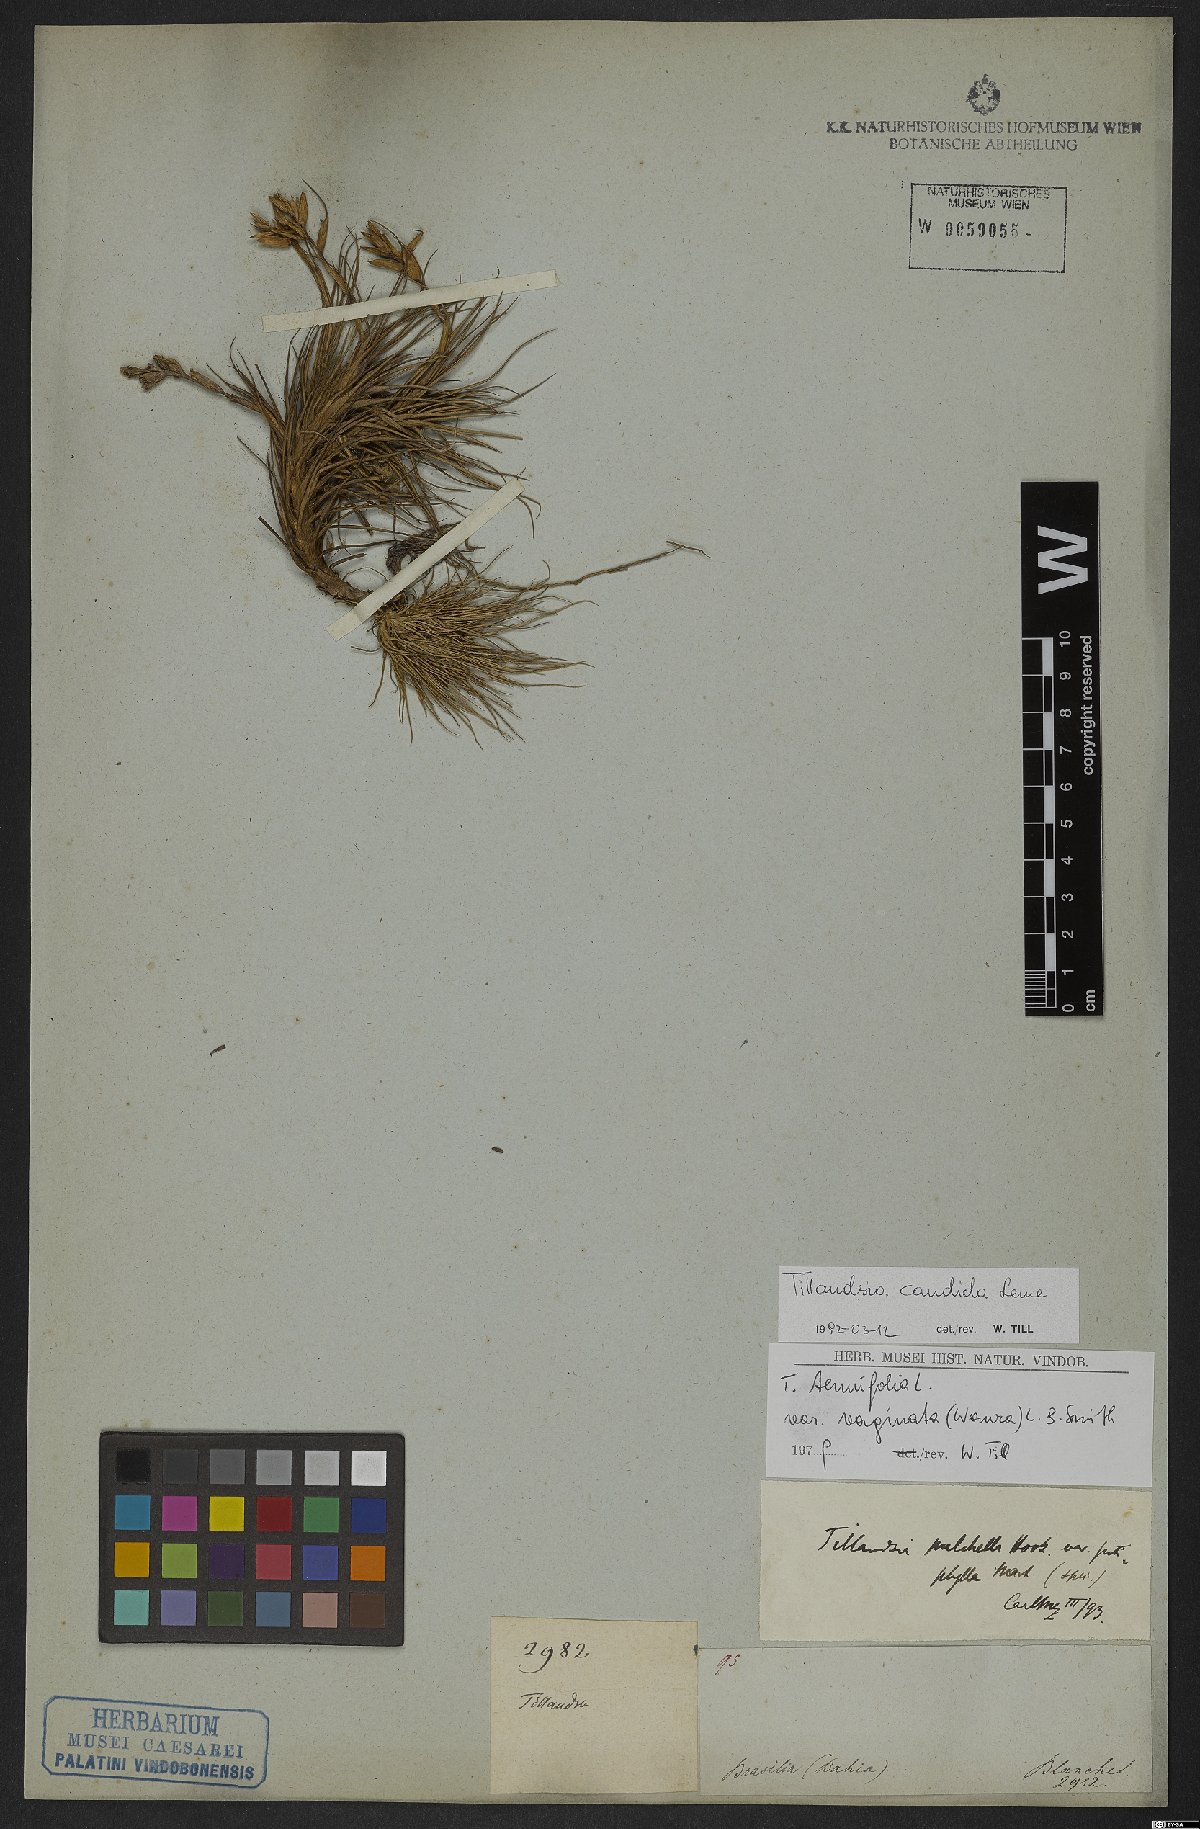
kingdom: Plantae
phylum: Tracheophyta
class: Liliopsida
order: Poales
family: Bromeliaceae
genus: Tillandsia
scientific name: Tillandsia candida
